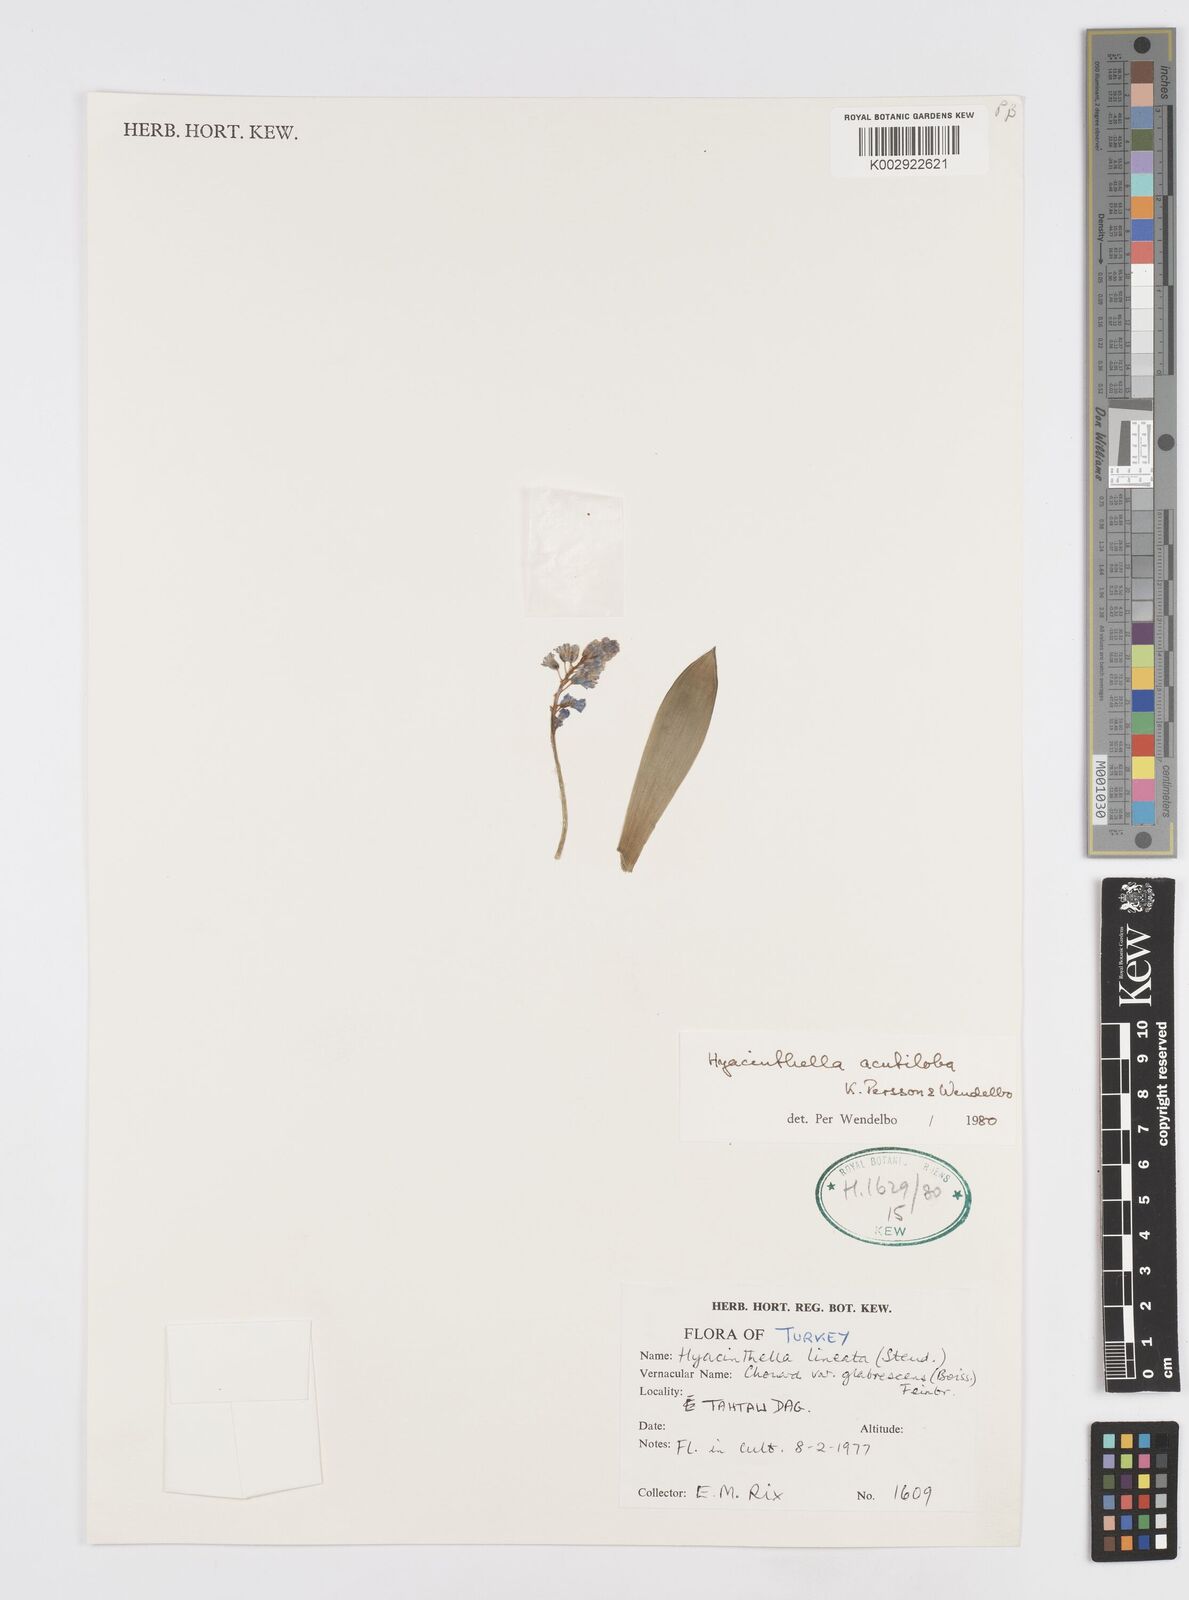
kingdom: Plantae
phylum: Tracheophyta
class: Liliopsida
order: Asparagales
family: Asparagaceae
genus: Hyacinthella
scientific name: Hyacinthella acutiloba
